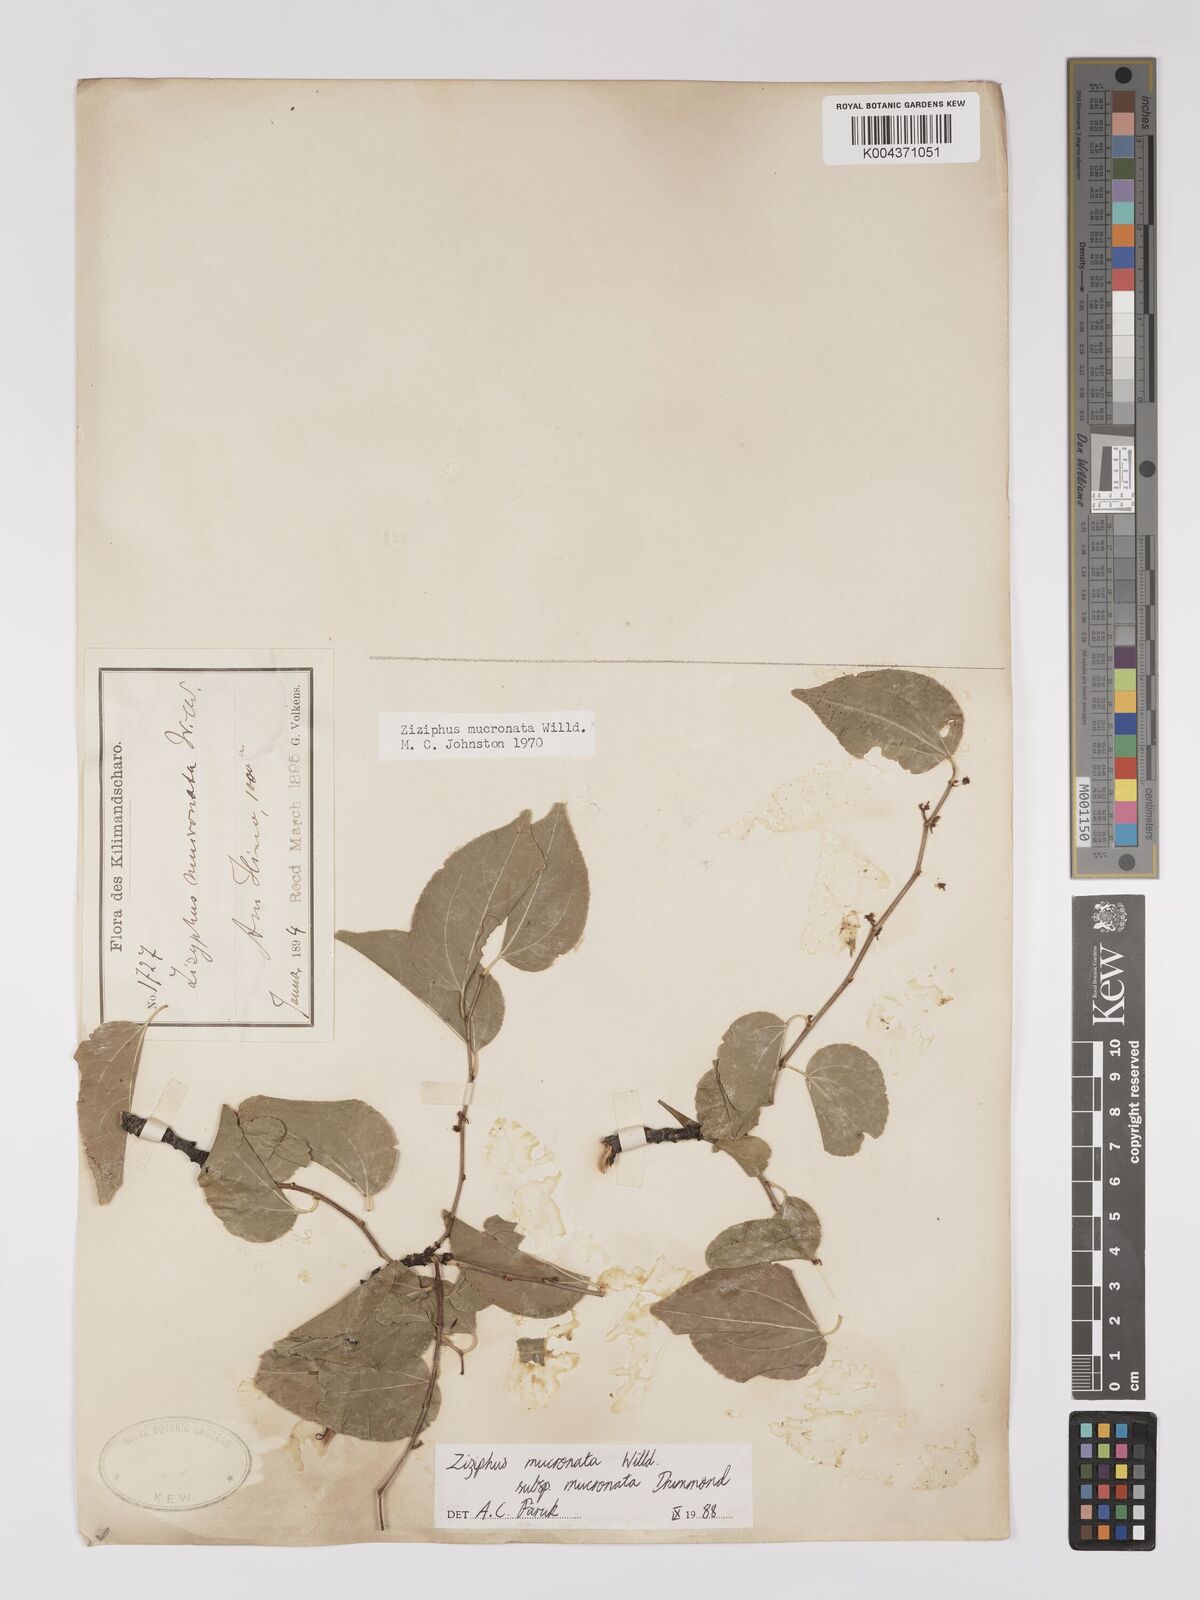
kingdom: Plantae
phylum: Tracheophyta
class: Magnoliopsida
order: Rosales
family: Rhamnaceae
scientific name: Rhamnaceae
